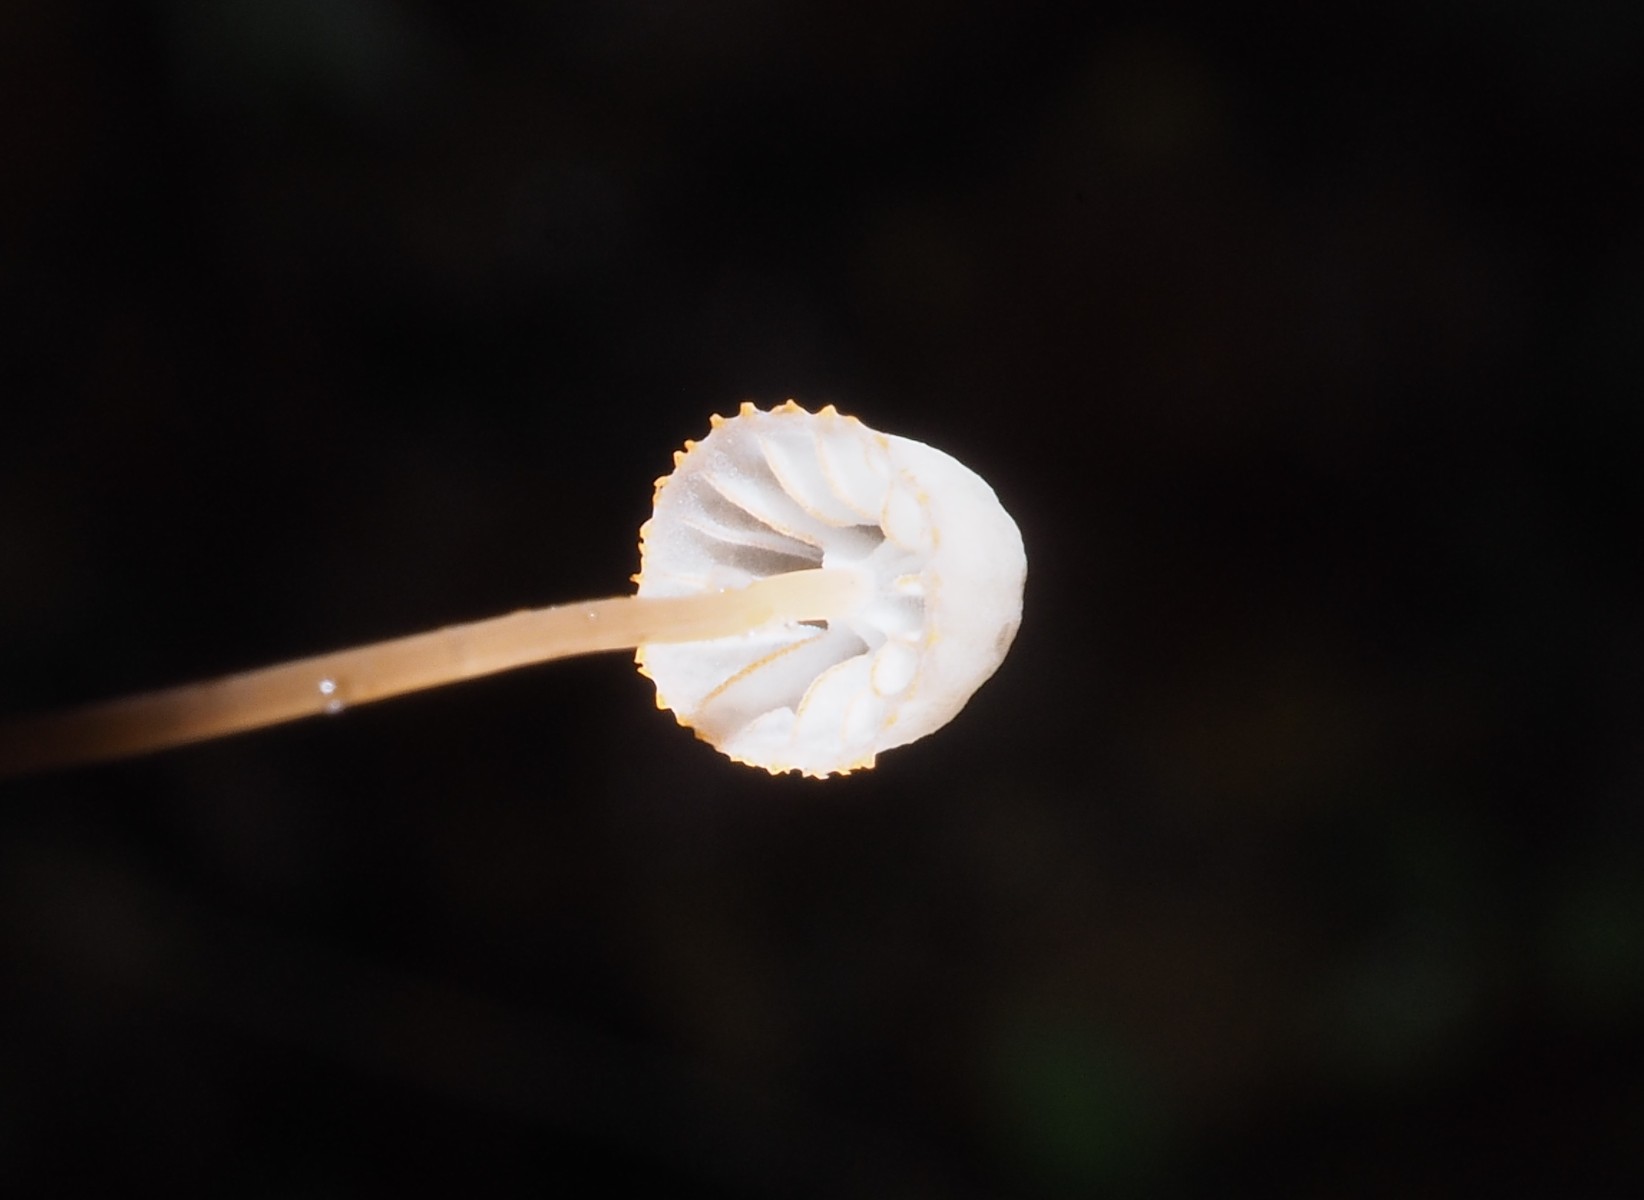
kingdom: Fungi
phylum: Basidiomycota
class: Agaricomycetes
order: Agaricales
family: Mycenaceae
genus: Mycena
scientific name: Mycena pterigena
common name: bregne-huesvamp
